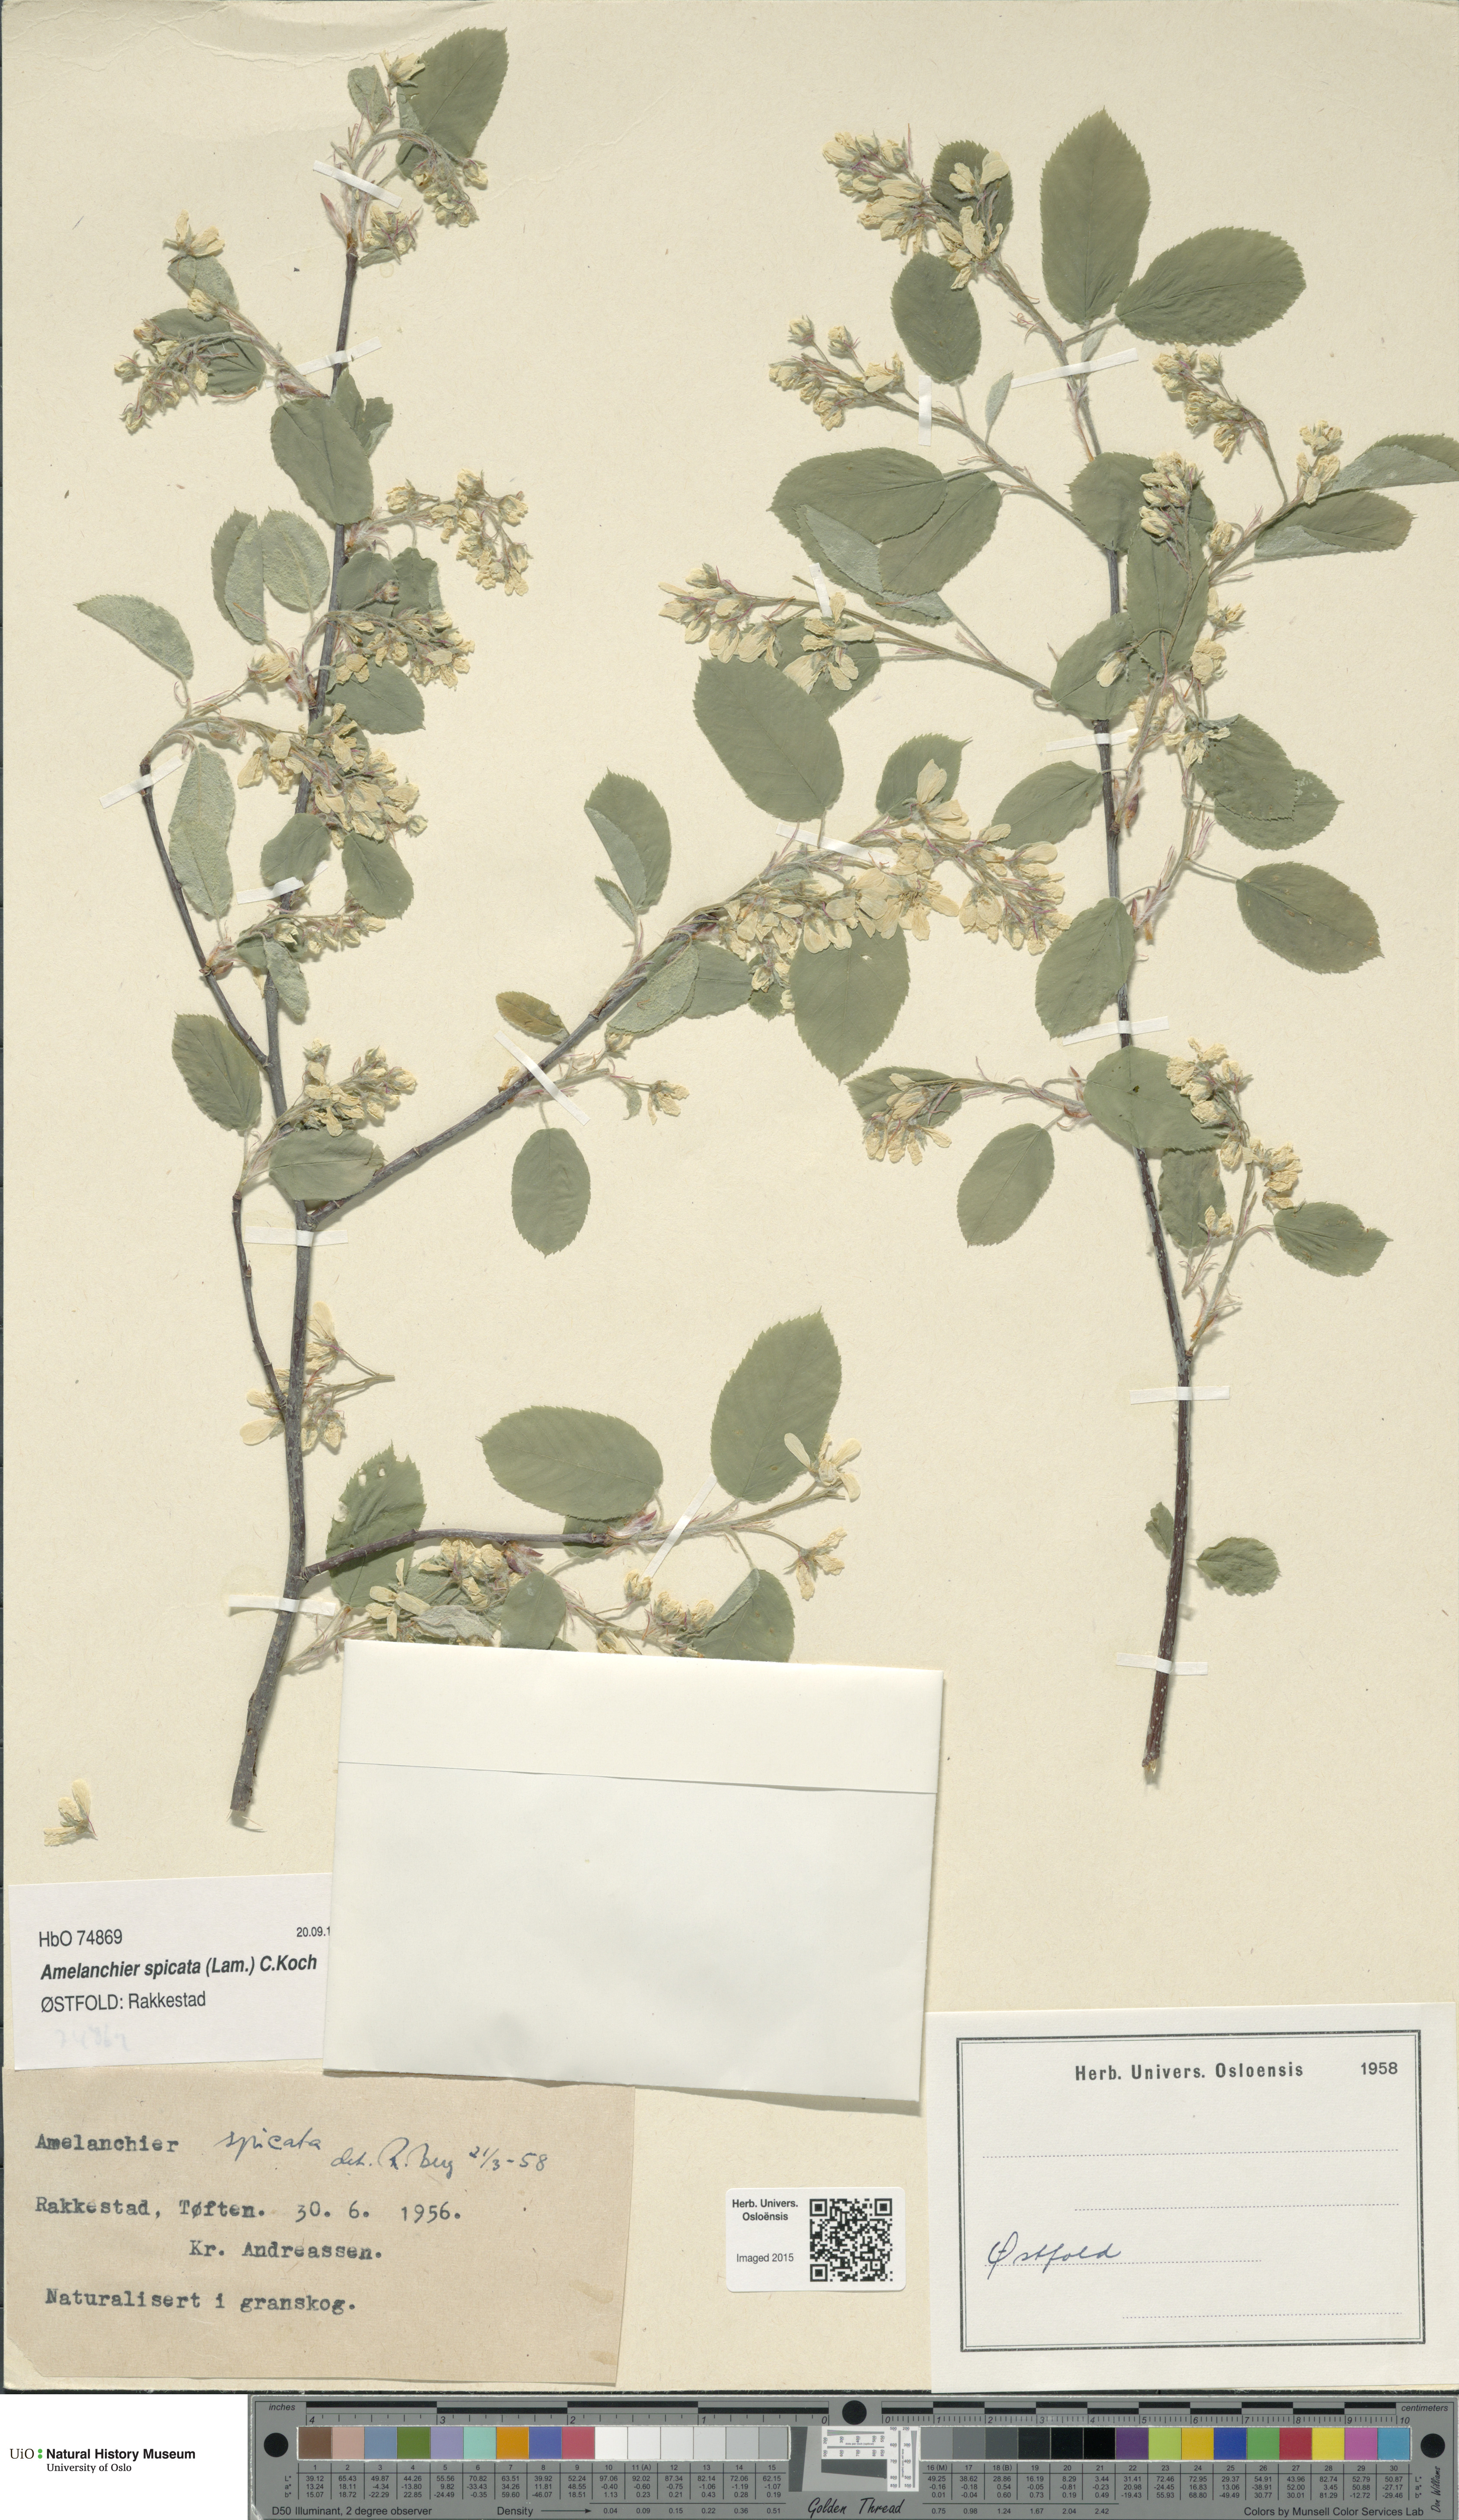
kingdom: Plantae
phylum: Tracheophyta
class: Magnoliopsida
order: Rosales
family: Rosaceae
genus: Amelanchier
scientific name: Amelanchier humilis
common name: Low juneberry
